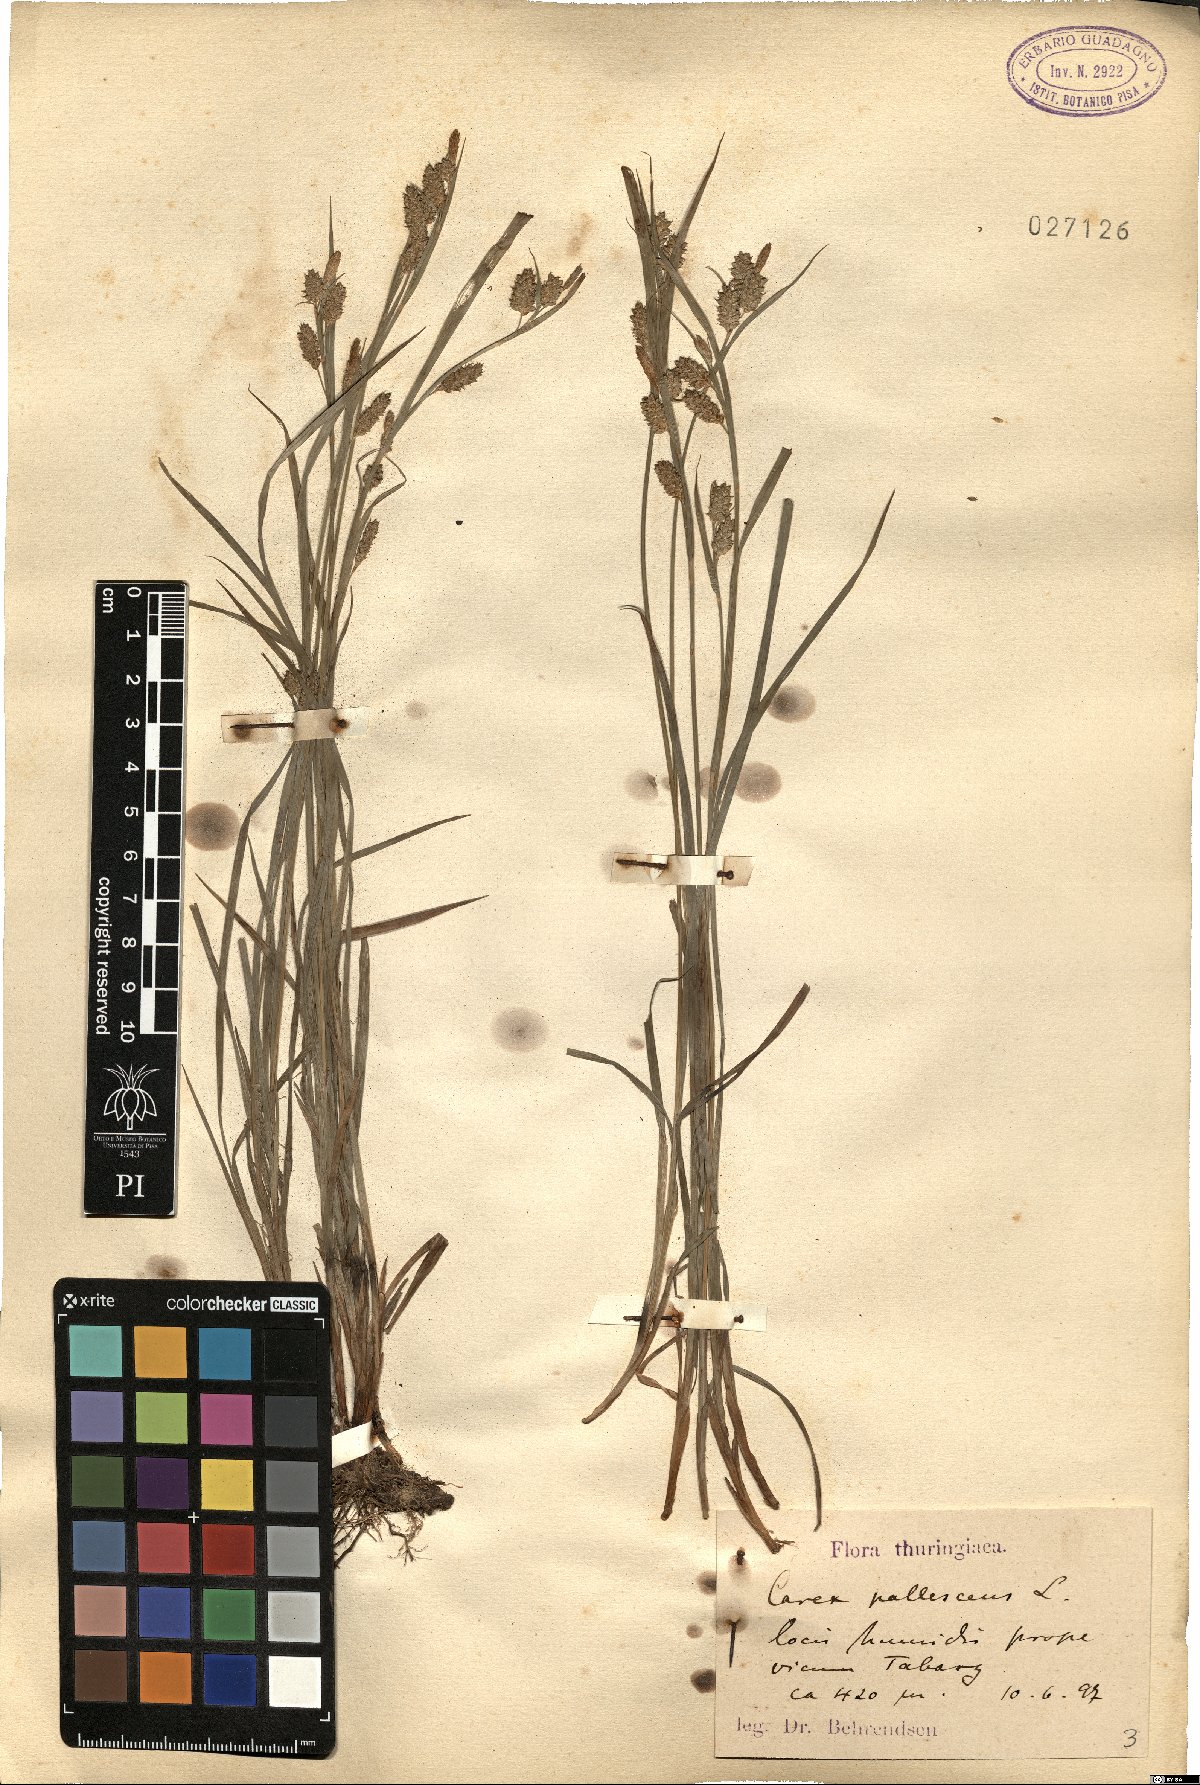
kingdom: Plantae
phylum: Tracheophyta
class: Liliopsida
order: Poales
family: Cyperaceae
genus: Carex
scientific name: Carex pallescens
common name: Pale sedge
